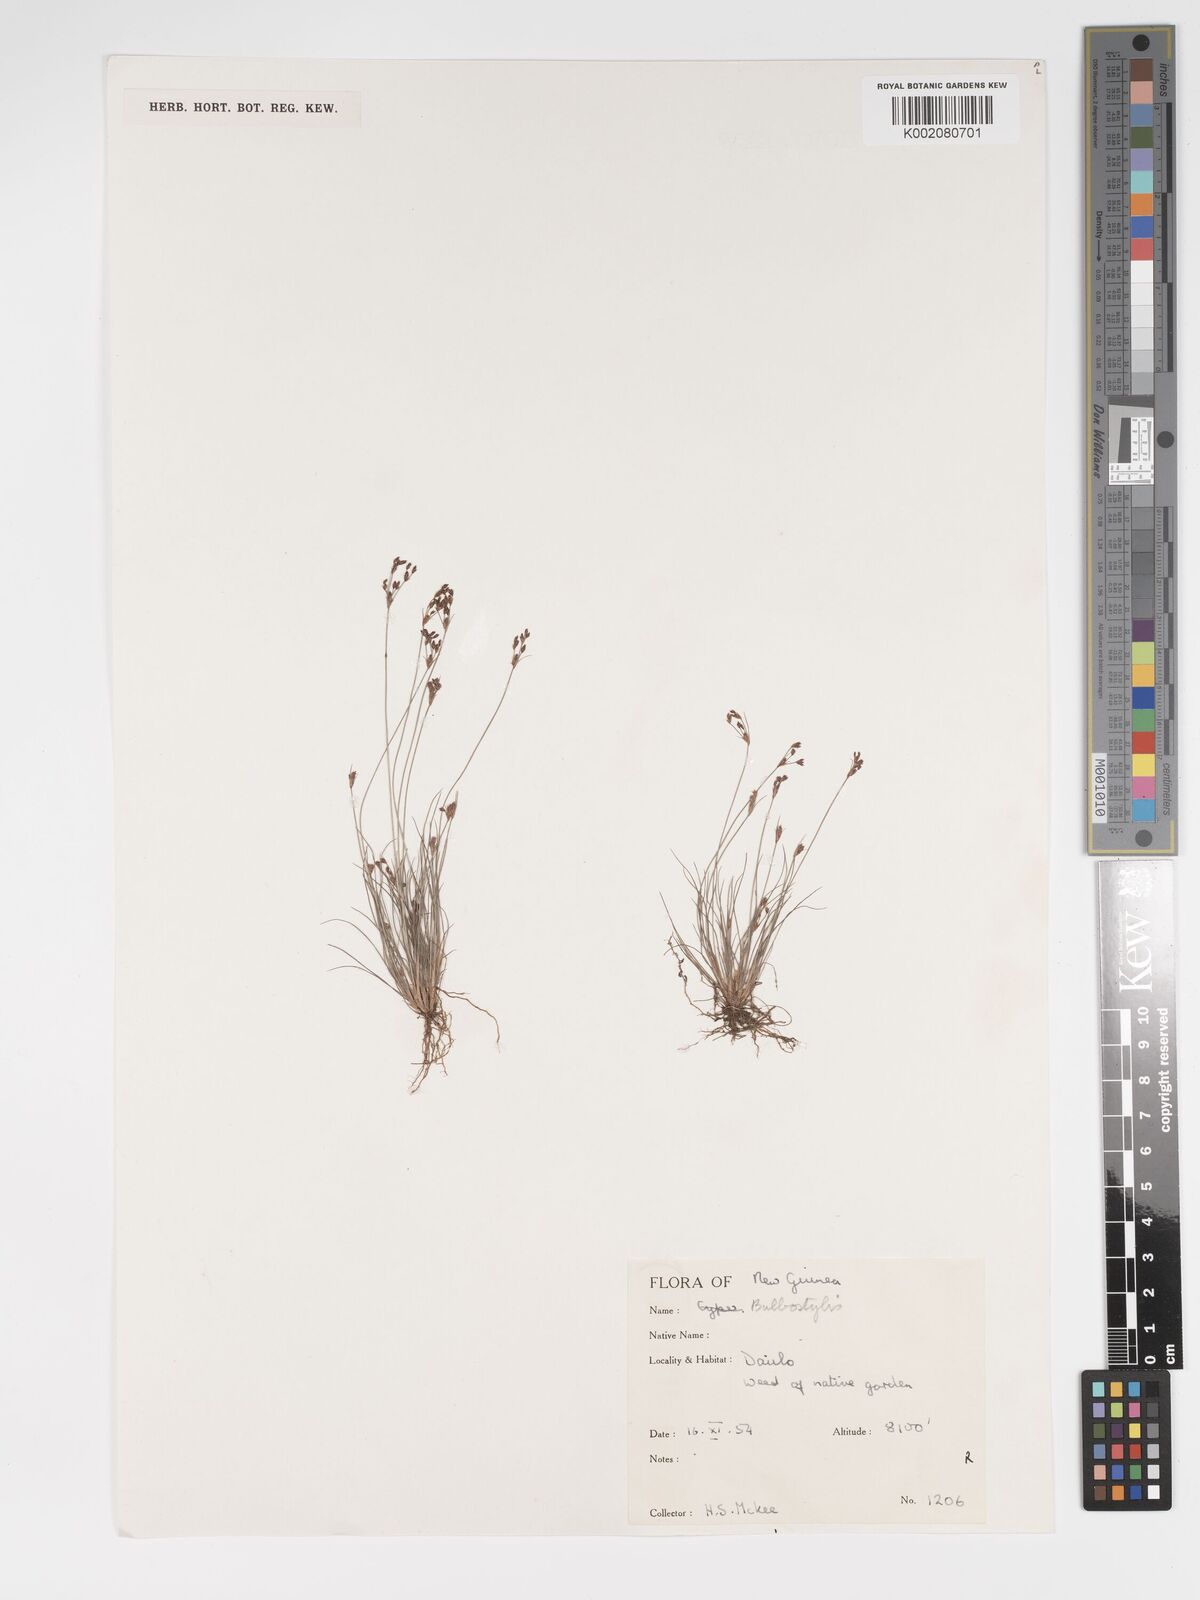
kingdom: Plantae
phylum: Tracheophyta
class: Liliopsida
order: Poales
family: Cyperaceae
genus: Bulbostylis
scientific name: Bulbostylis densa
